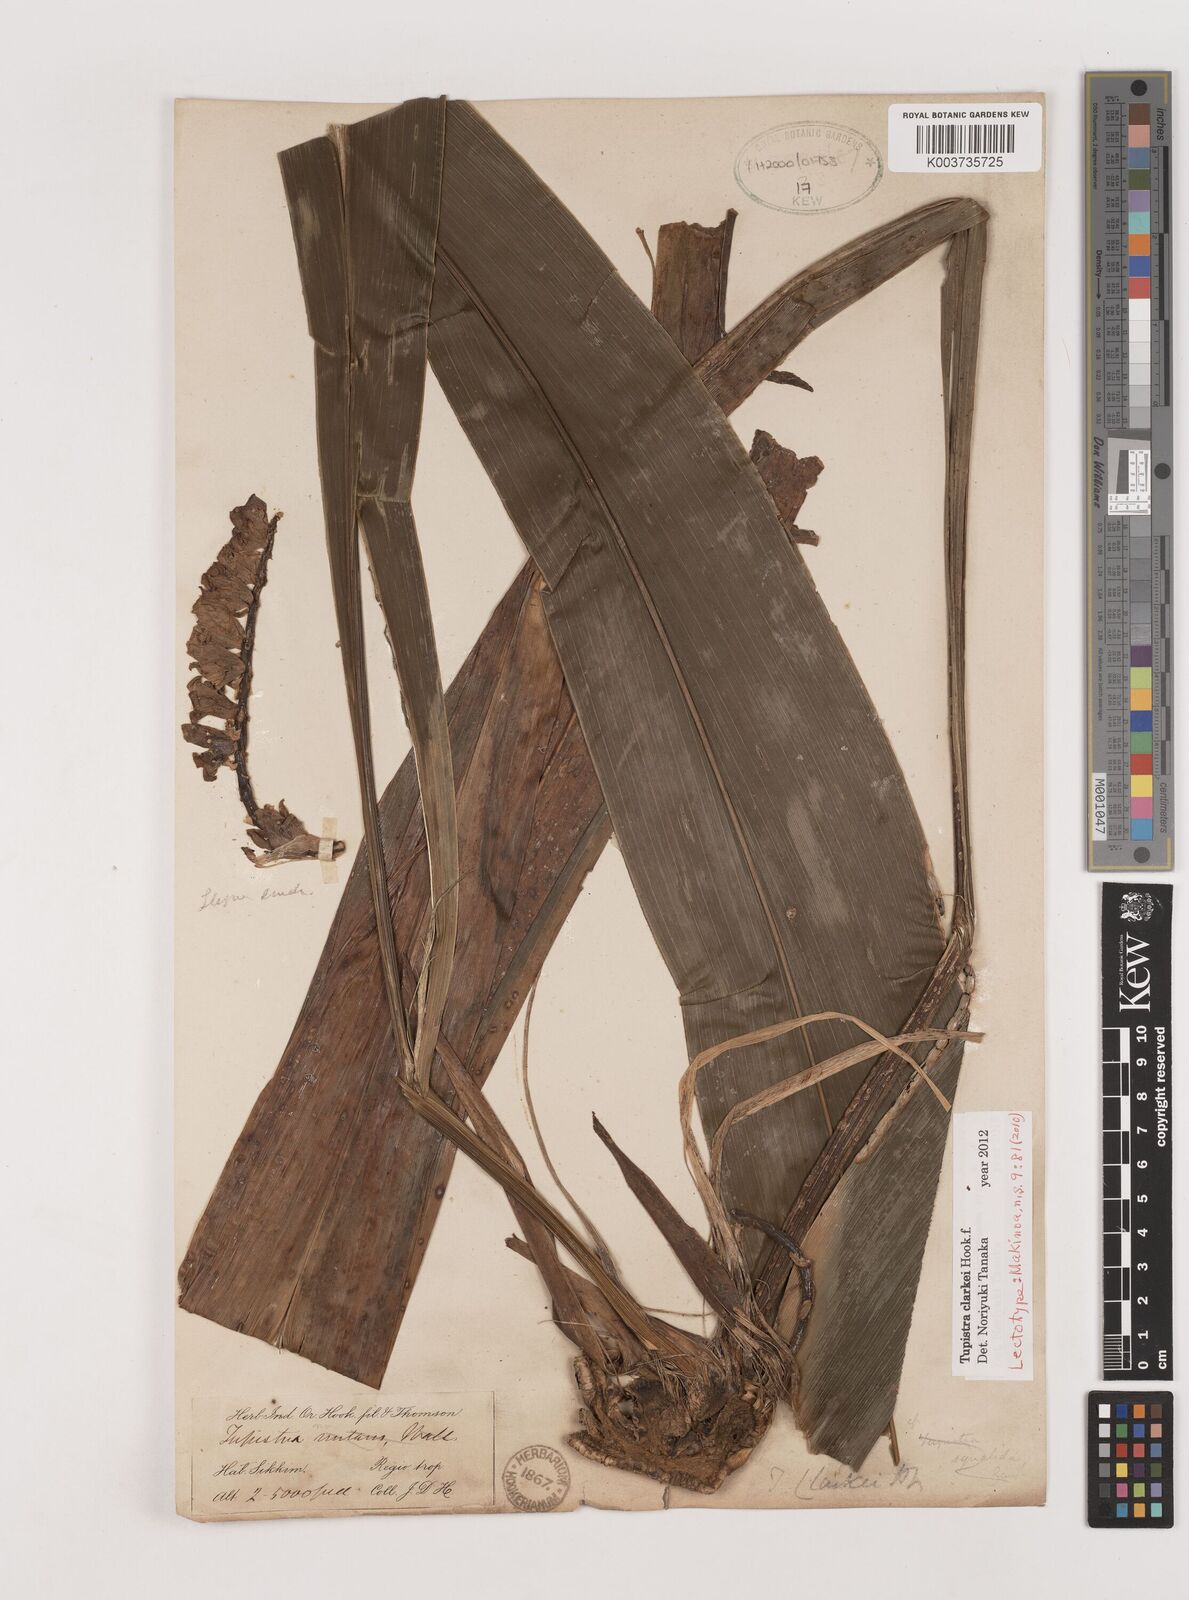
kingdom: Plantae
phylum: Tracheophyta
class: Liliopsida
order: Asparagales
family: Asparagaceae
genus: Tupistra
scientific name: Tupistra clarkei
